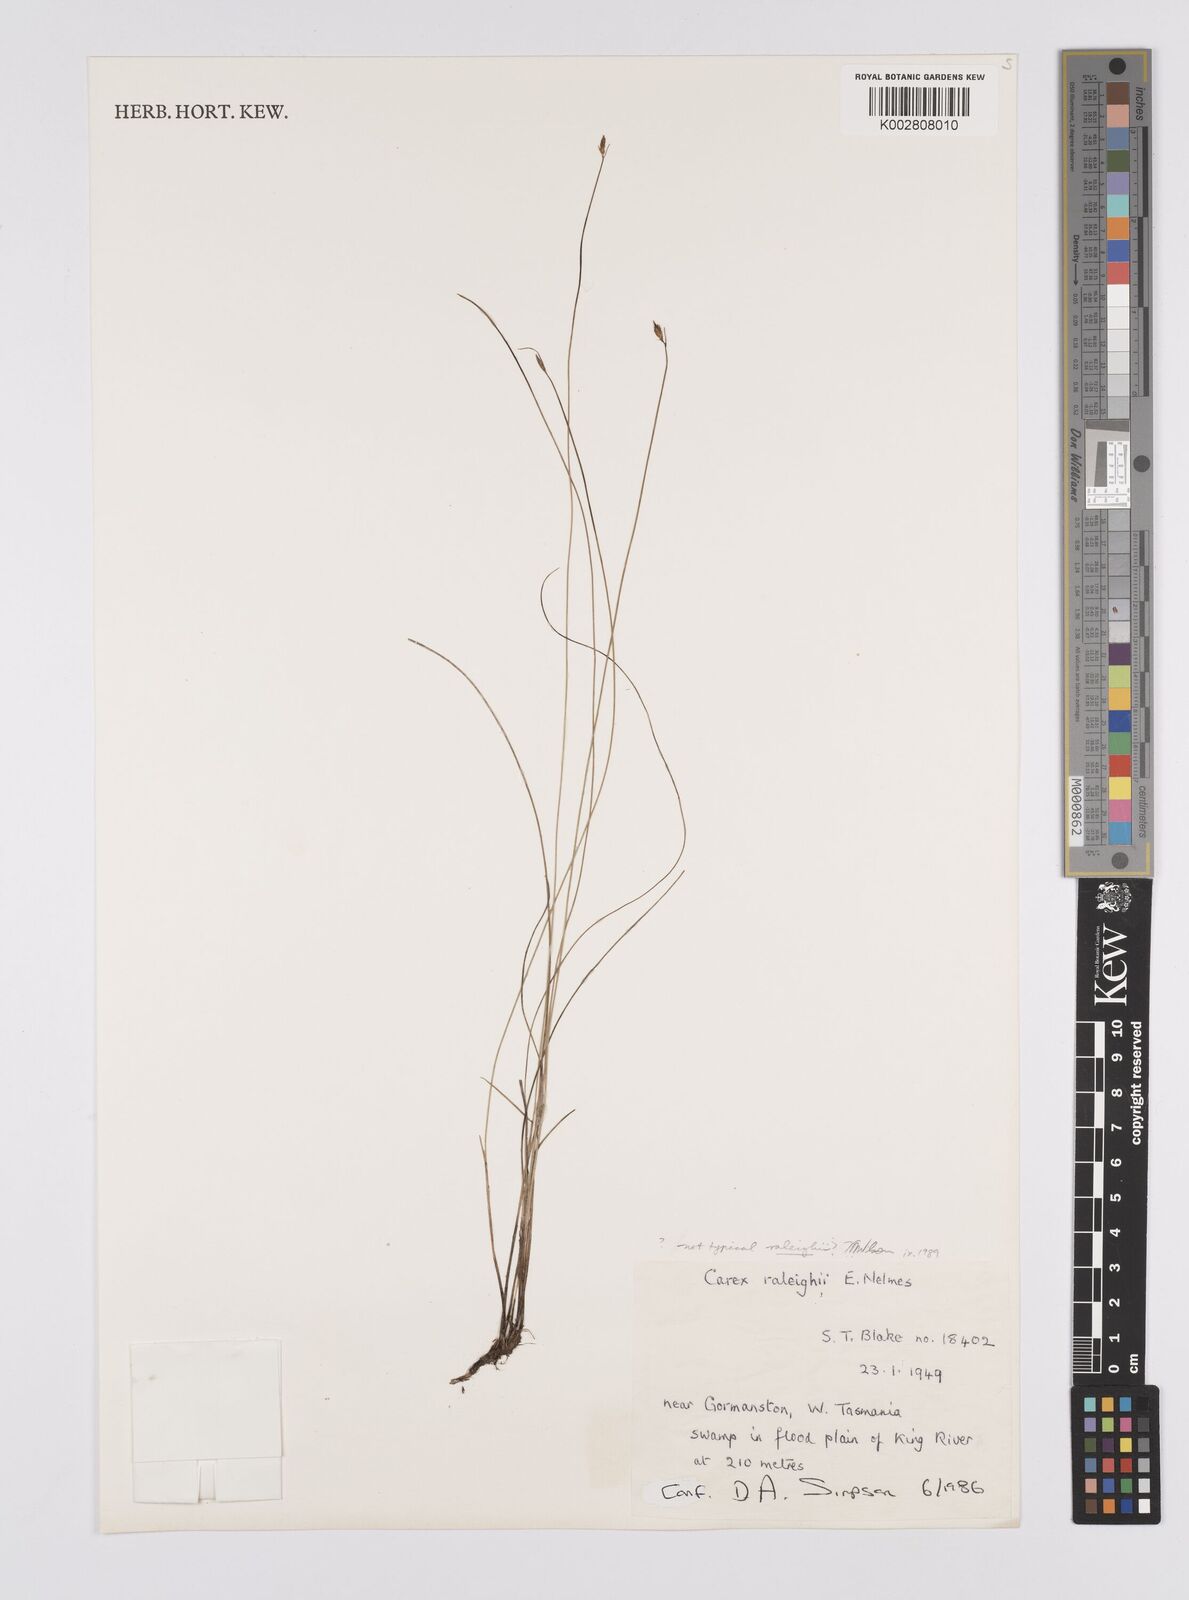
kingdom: Plantae
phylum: Tracheophyta
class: Liliopsida
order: Poales
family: Cyperaceae
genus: Carex
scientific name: Carex raleighii
